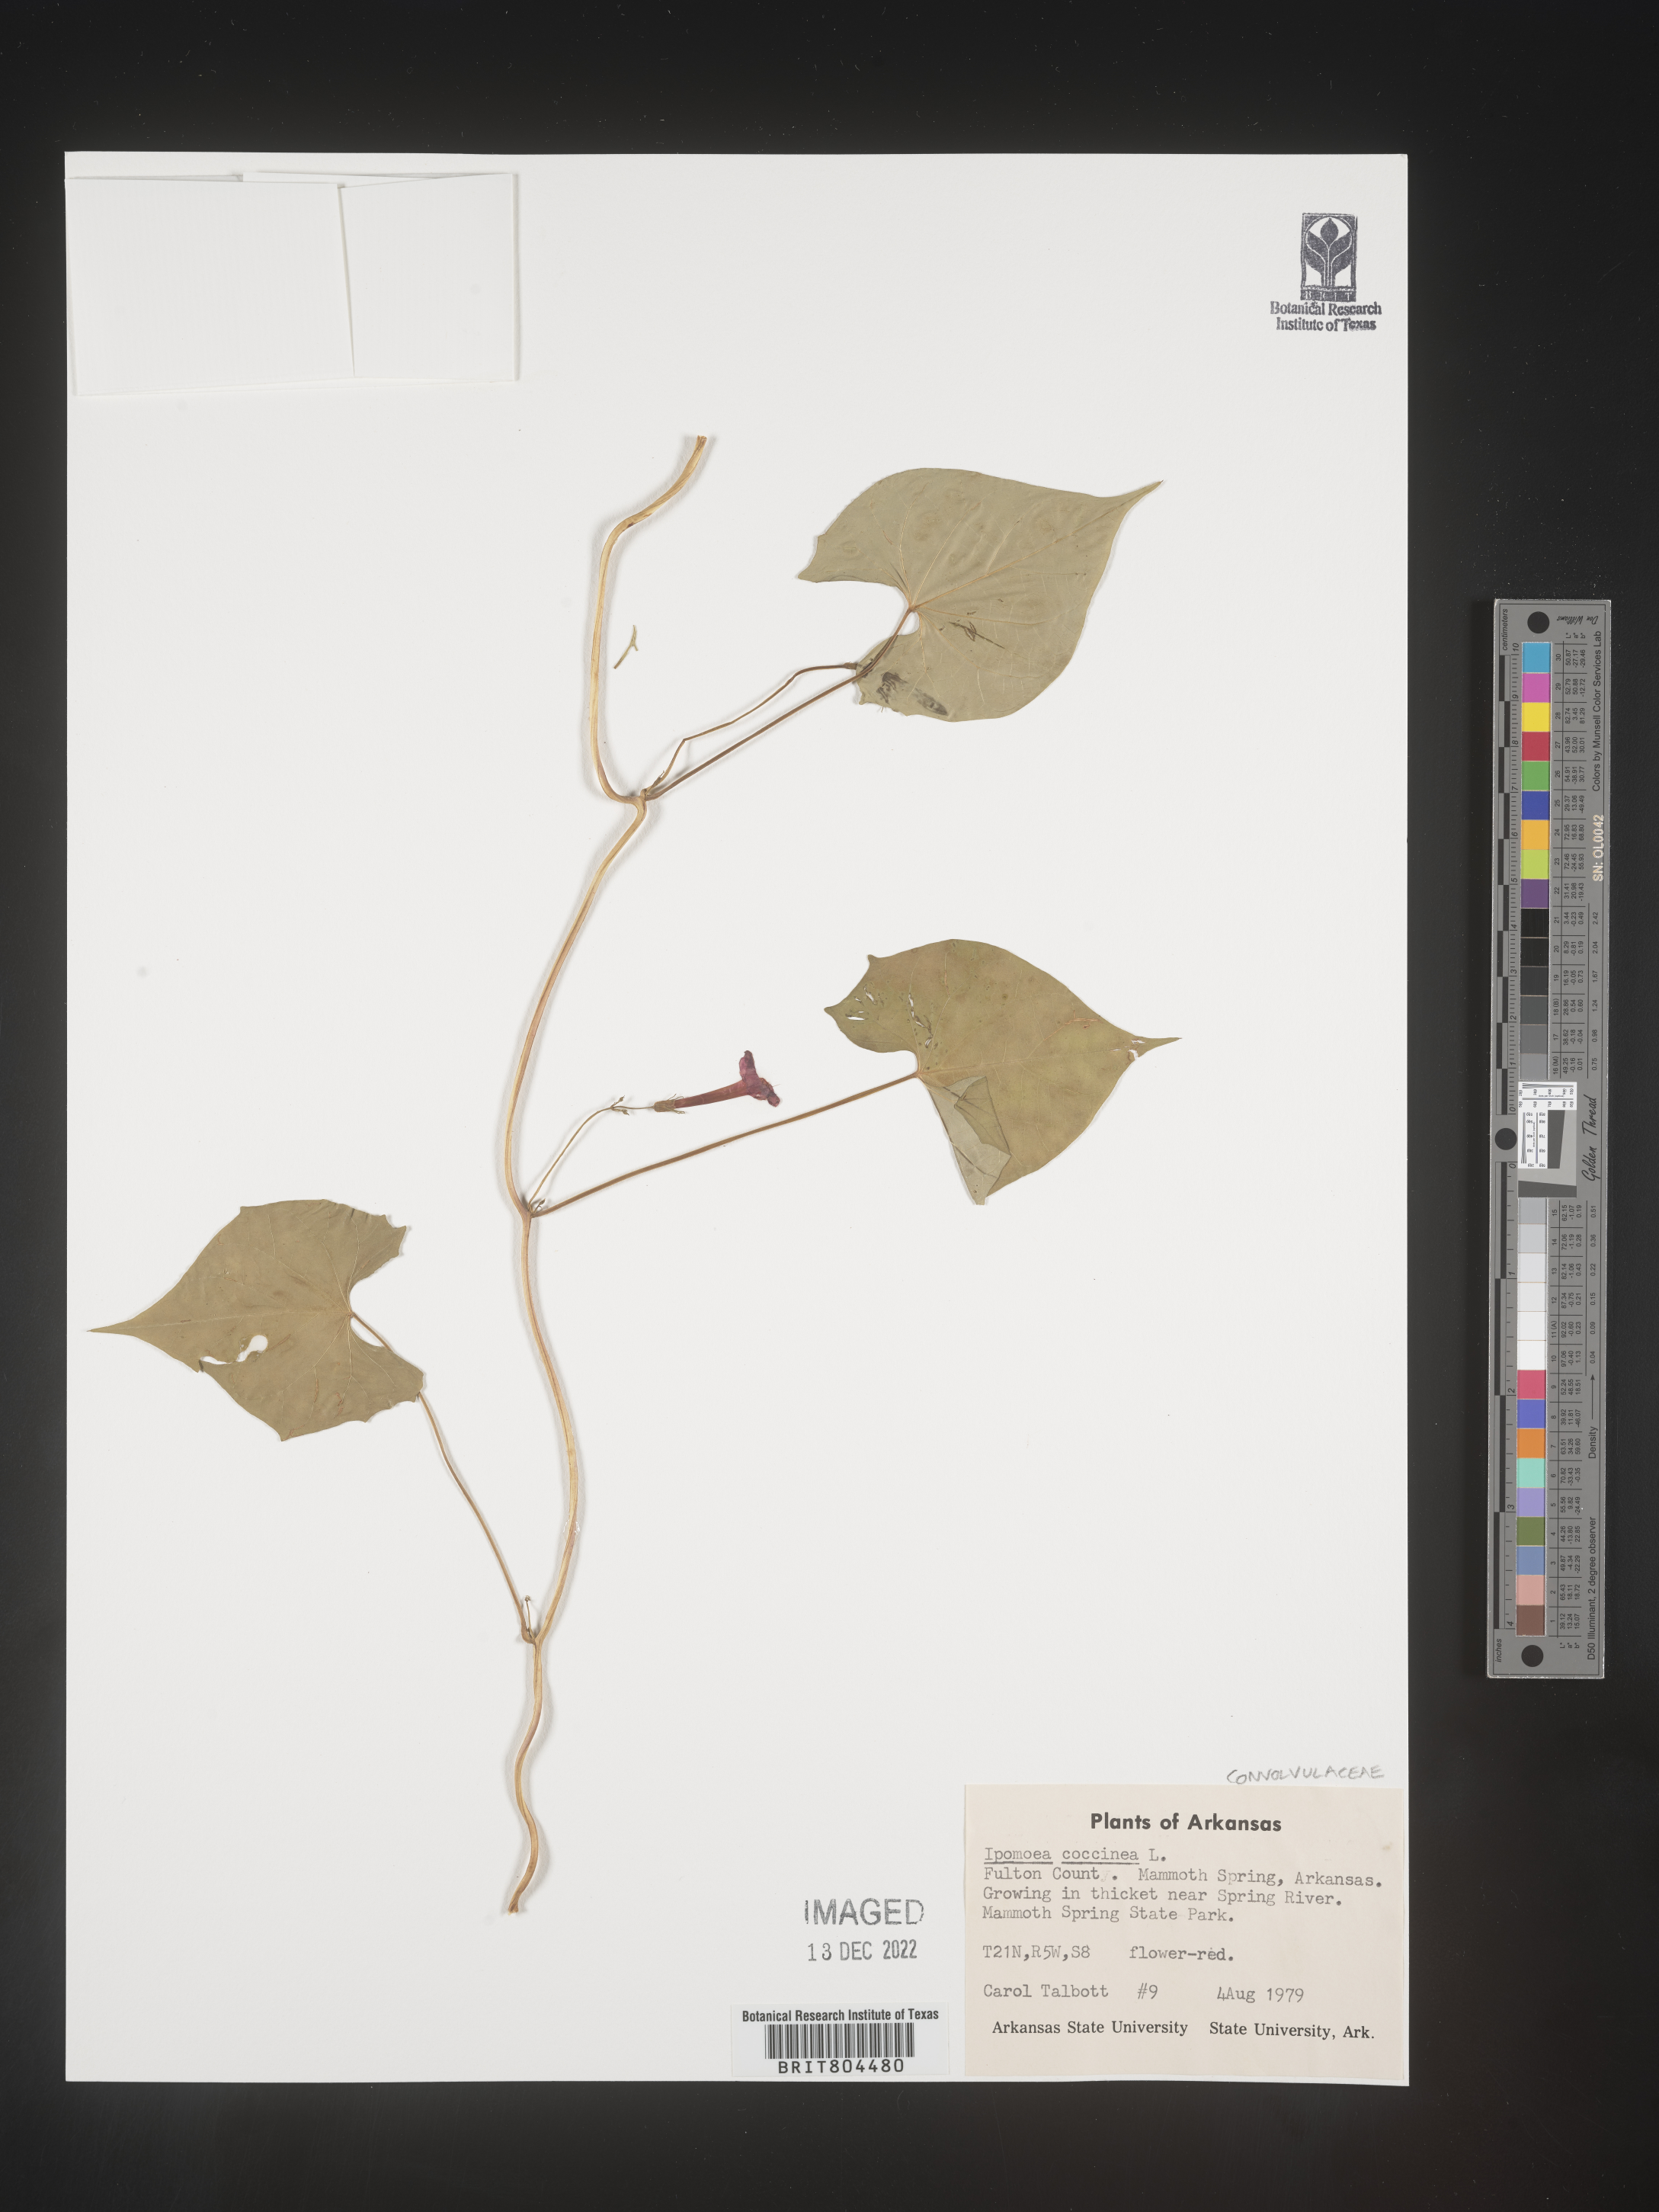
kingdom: Plantae
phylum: Tracheophyta
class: Magnoliopsida
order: Solanales
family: Convolvulaceae
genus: Ipomoea
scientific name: Ipomoea coccinea
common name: Red morning-glory
